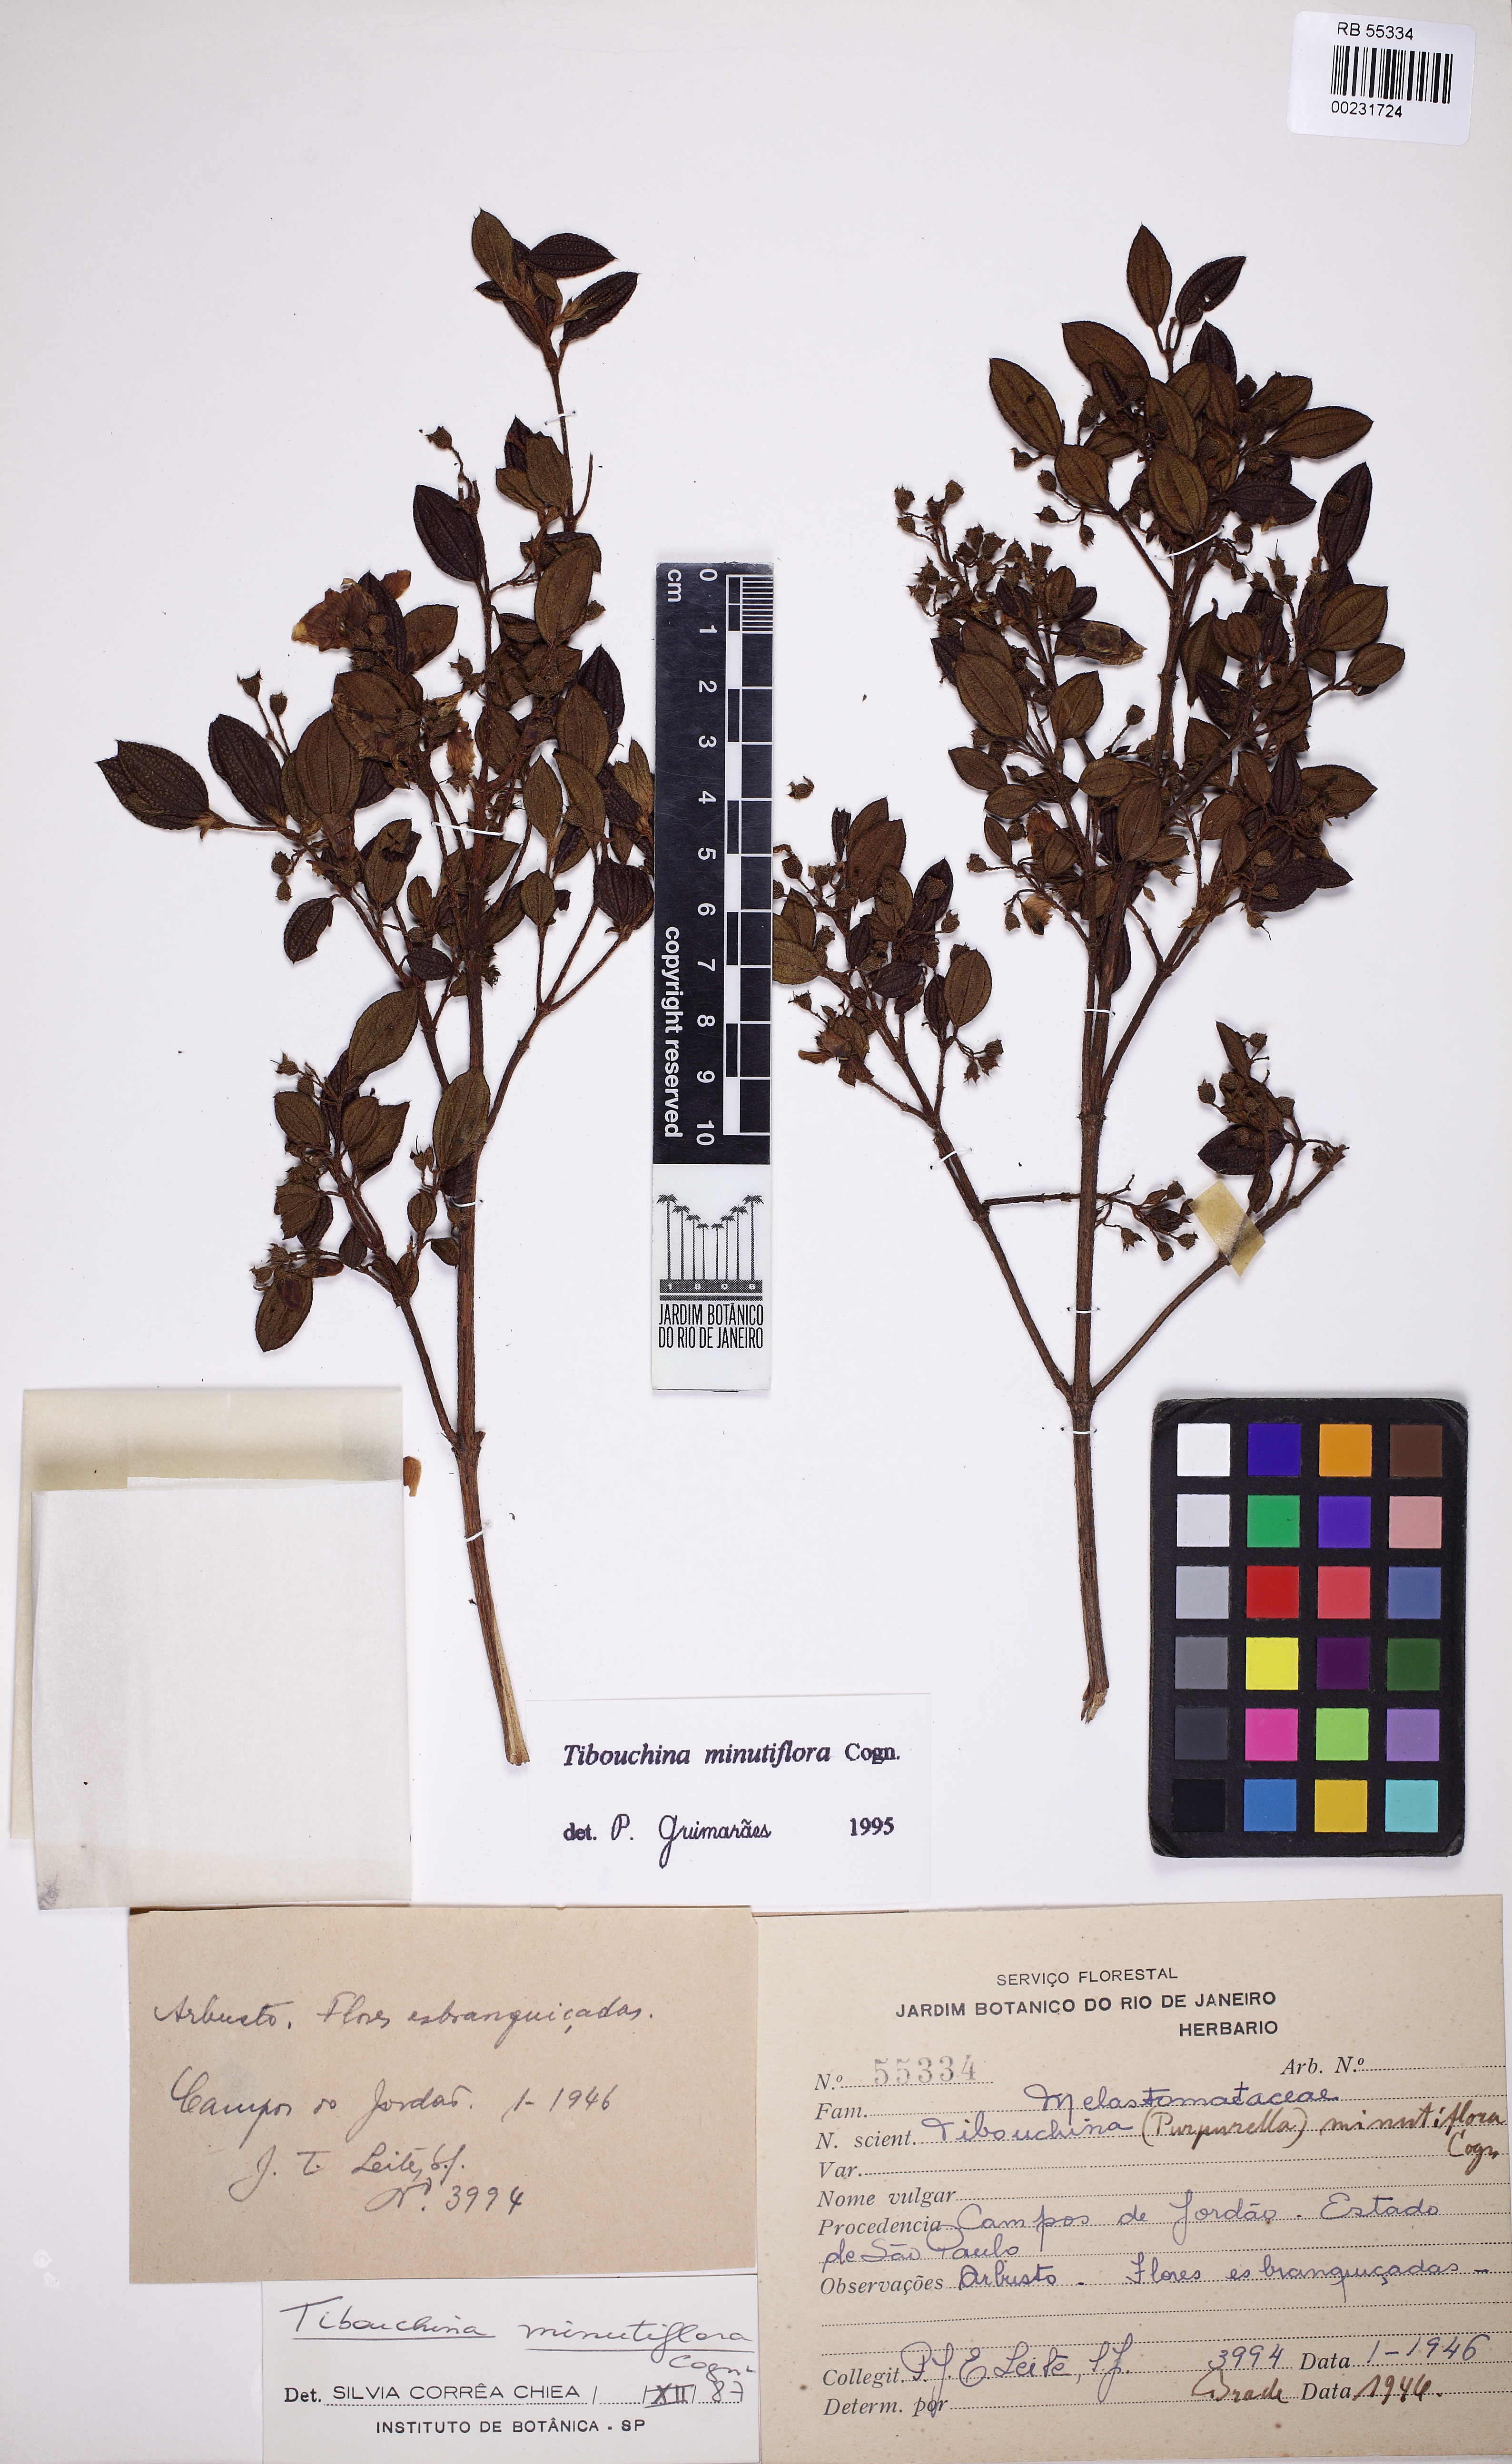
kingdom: Plantae
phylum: Tracheophyta
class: Magnoliopsida
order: Myrtales
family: Melastomataceae
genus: Tibouchina
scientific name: Tibouchina nigricans
